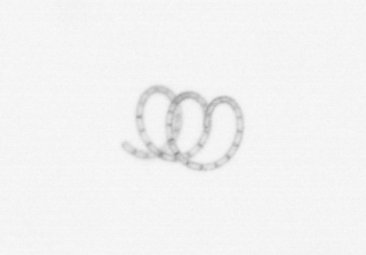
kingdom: Chromista
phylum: Ochrophyta
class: Bacillariophyceae
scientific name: Bacillariophyceae
